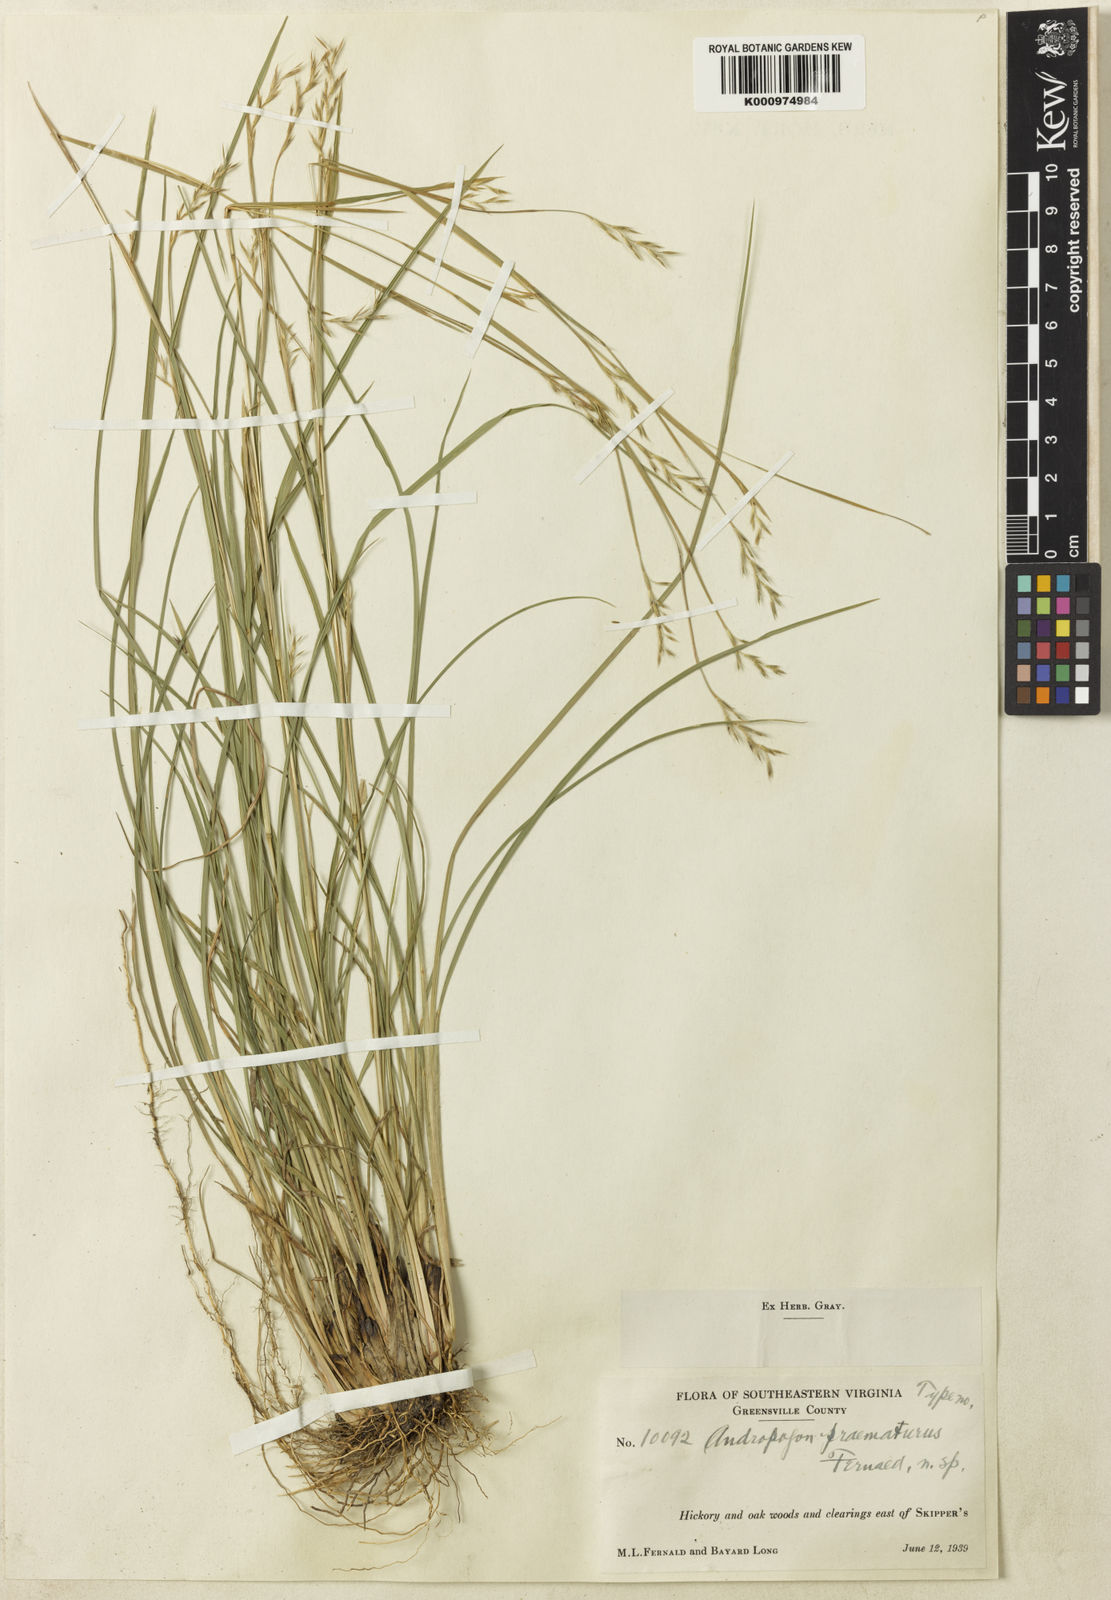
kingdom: Plantae
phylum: Tracheophyta
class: Liliopsida
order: Poales
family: Poaceae
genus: Schizachyrium
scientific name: Schizachyrium scoparium
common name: Little bluestem
